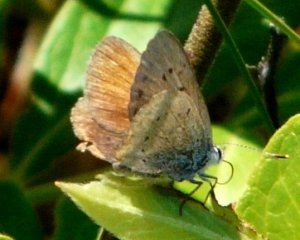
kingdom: Animalia
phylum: Arthropoda
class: Insecta
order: Lepidoptera
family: Sesiidae
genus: Sesia
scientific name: Sesia Lycaena epixanthe
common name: Bog Copper
